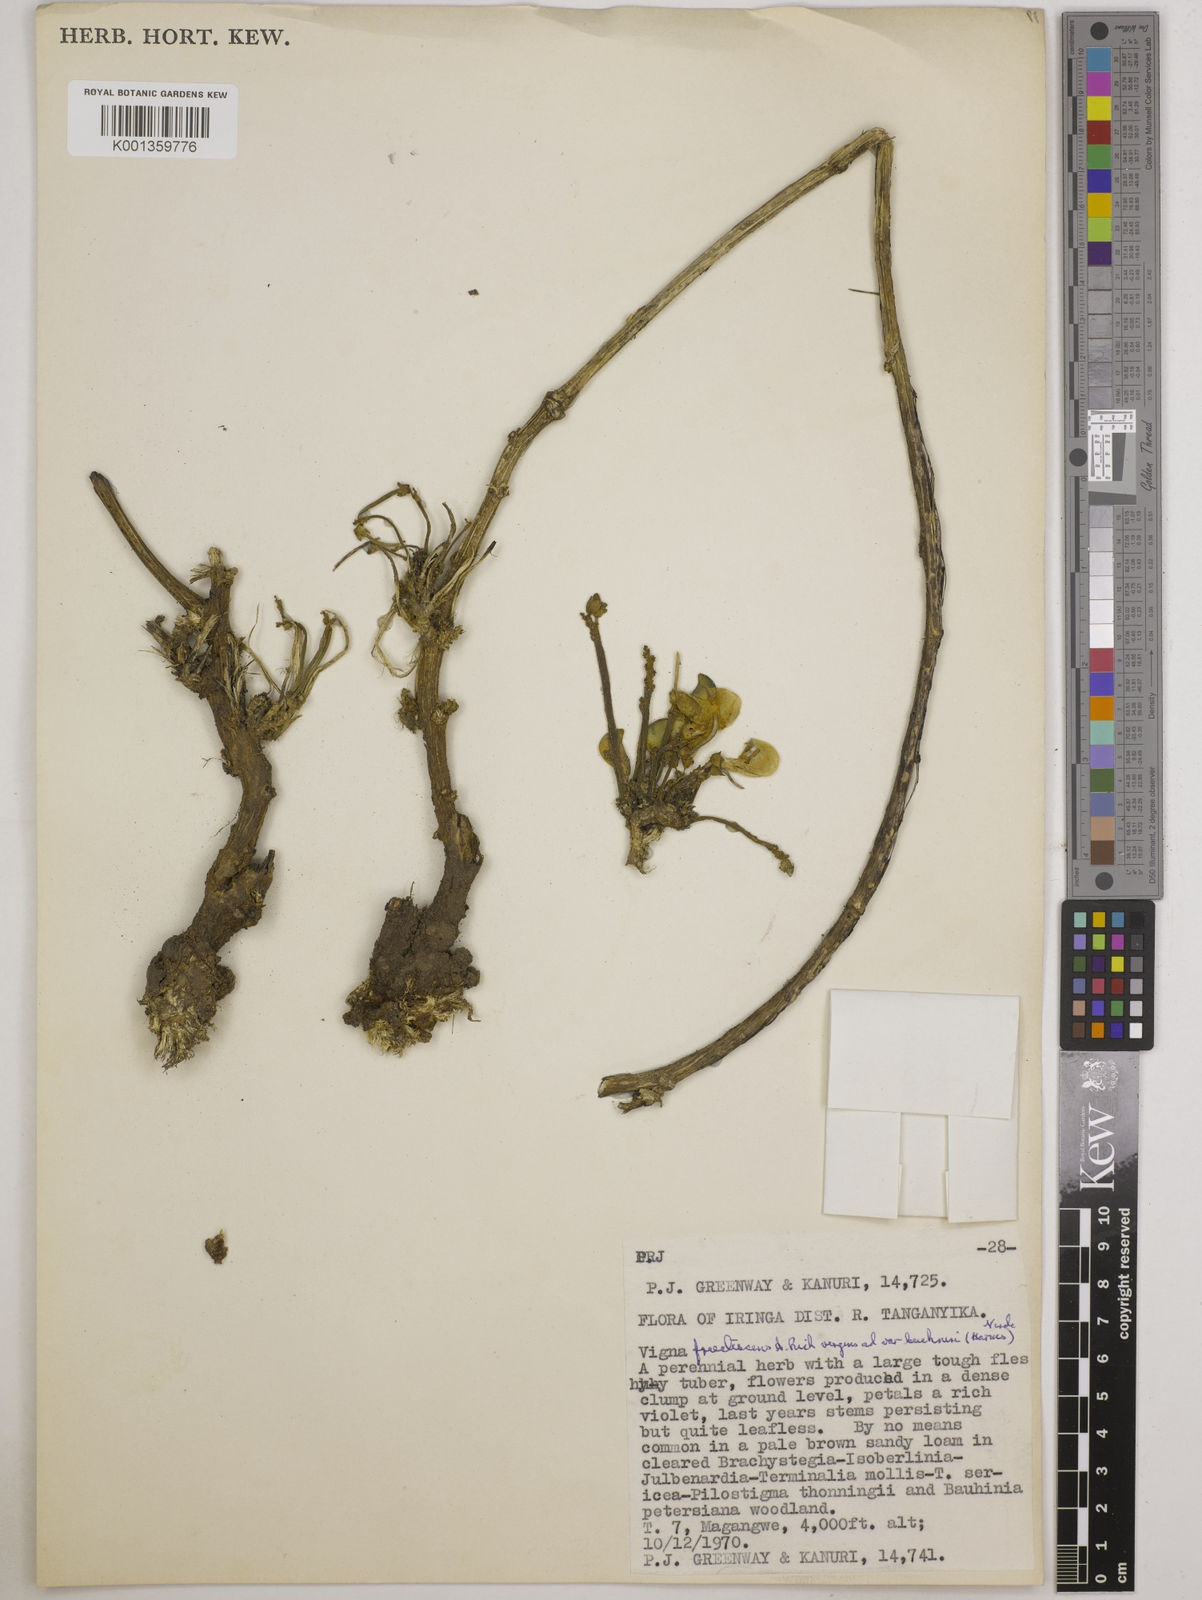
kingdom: Plantae
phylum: Tracheophyta
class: Magnoliopsida
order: Fabales
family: Fabaceae
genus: Vigna
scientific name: Vigna frutescens
